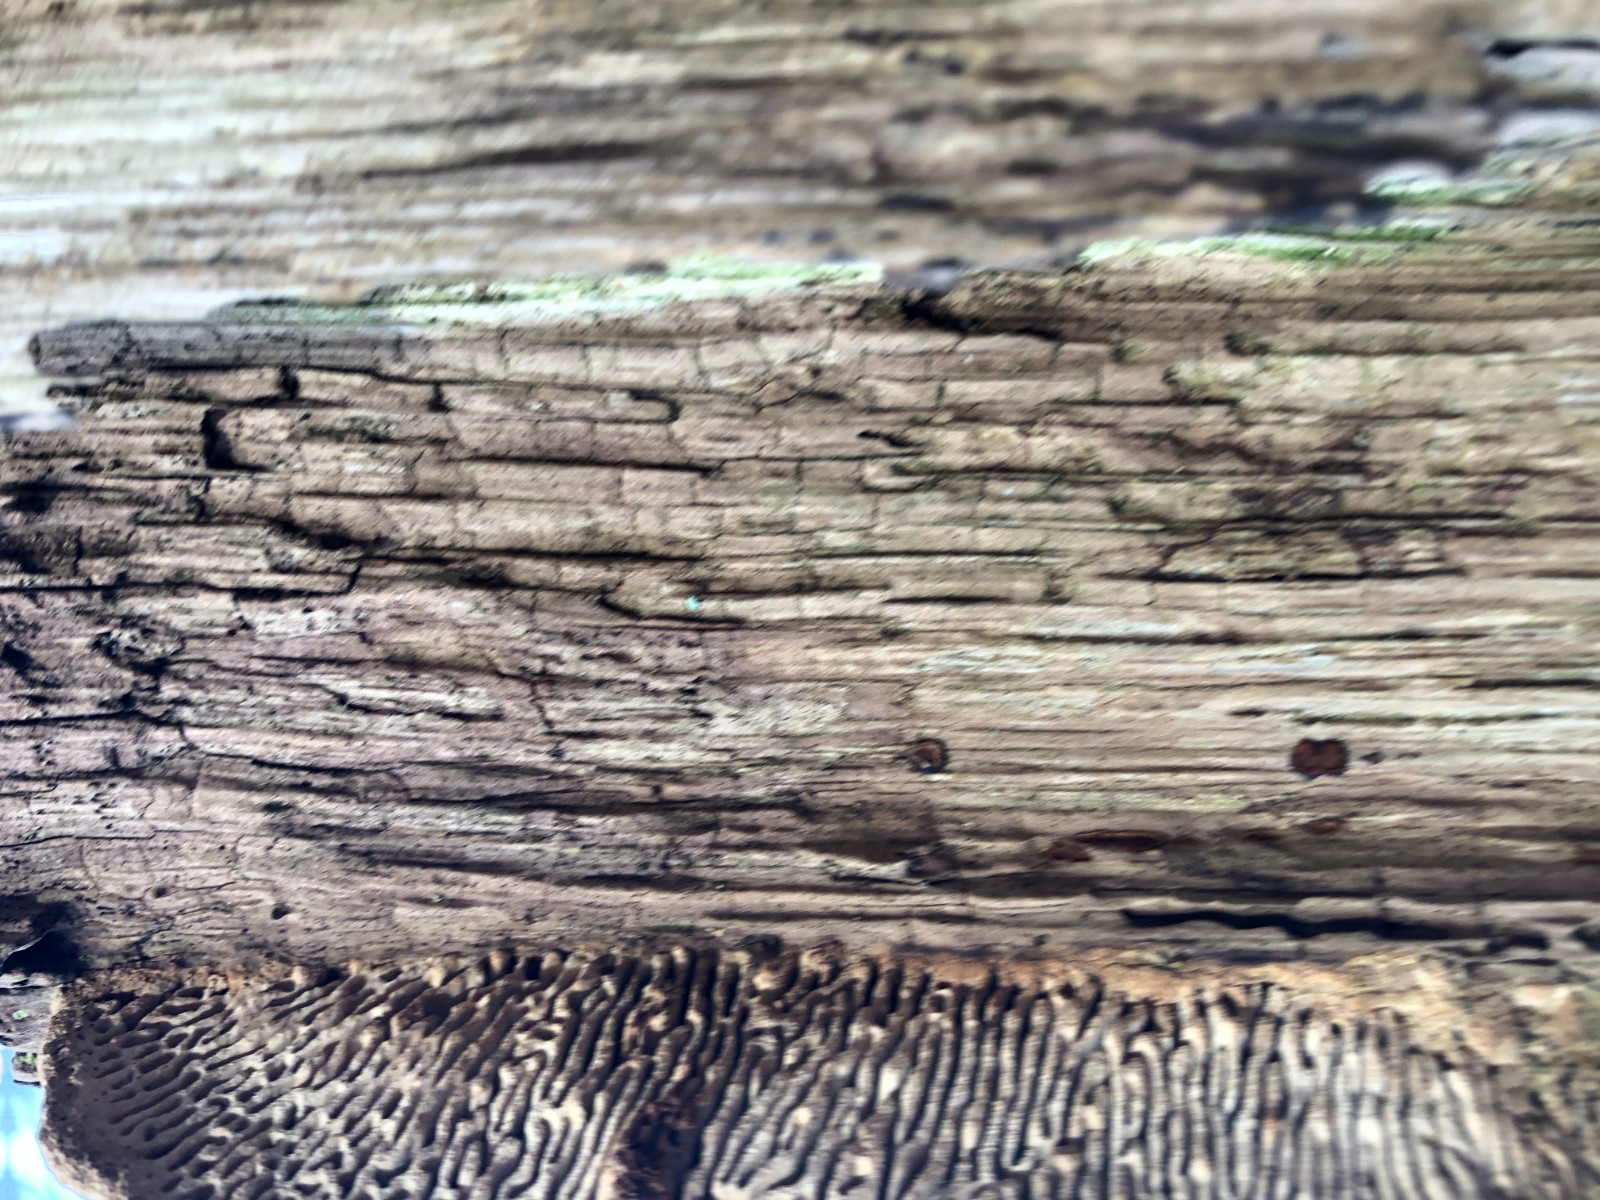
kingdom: Fungi
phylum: Basidiomycota
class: Agaricomycetes
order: Polyporales
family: Fomitopsidaceae
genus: Daedalea
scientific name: Daedalea quercina
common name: ege-labyrintsvamp
